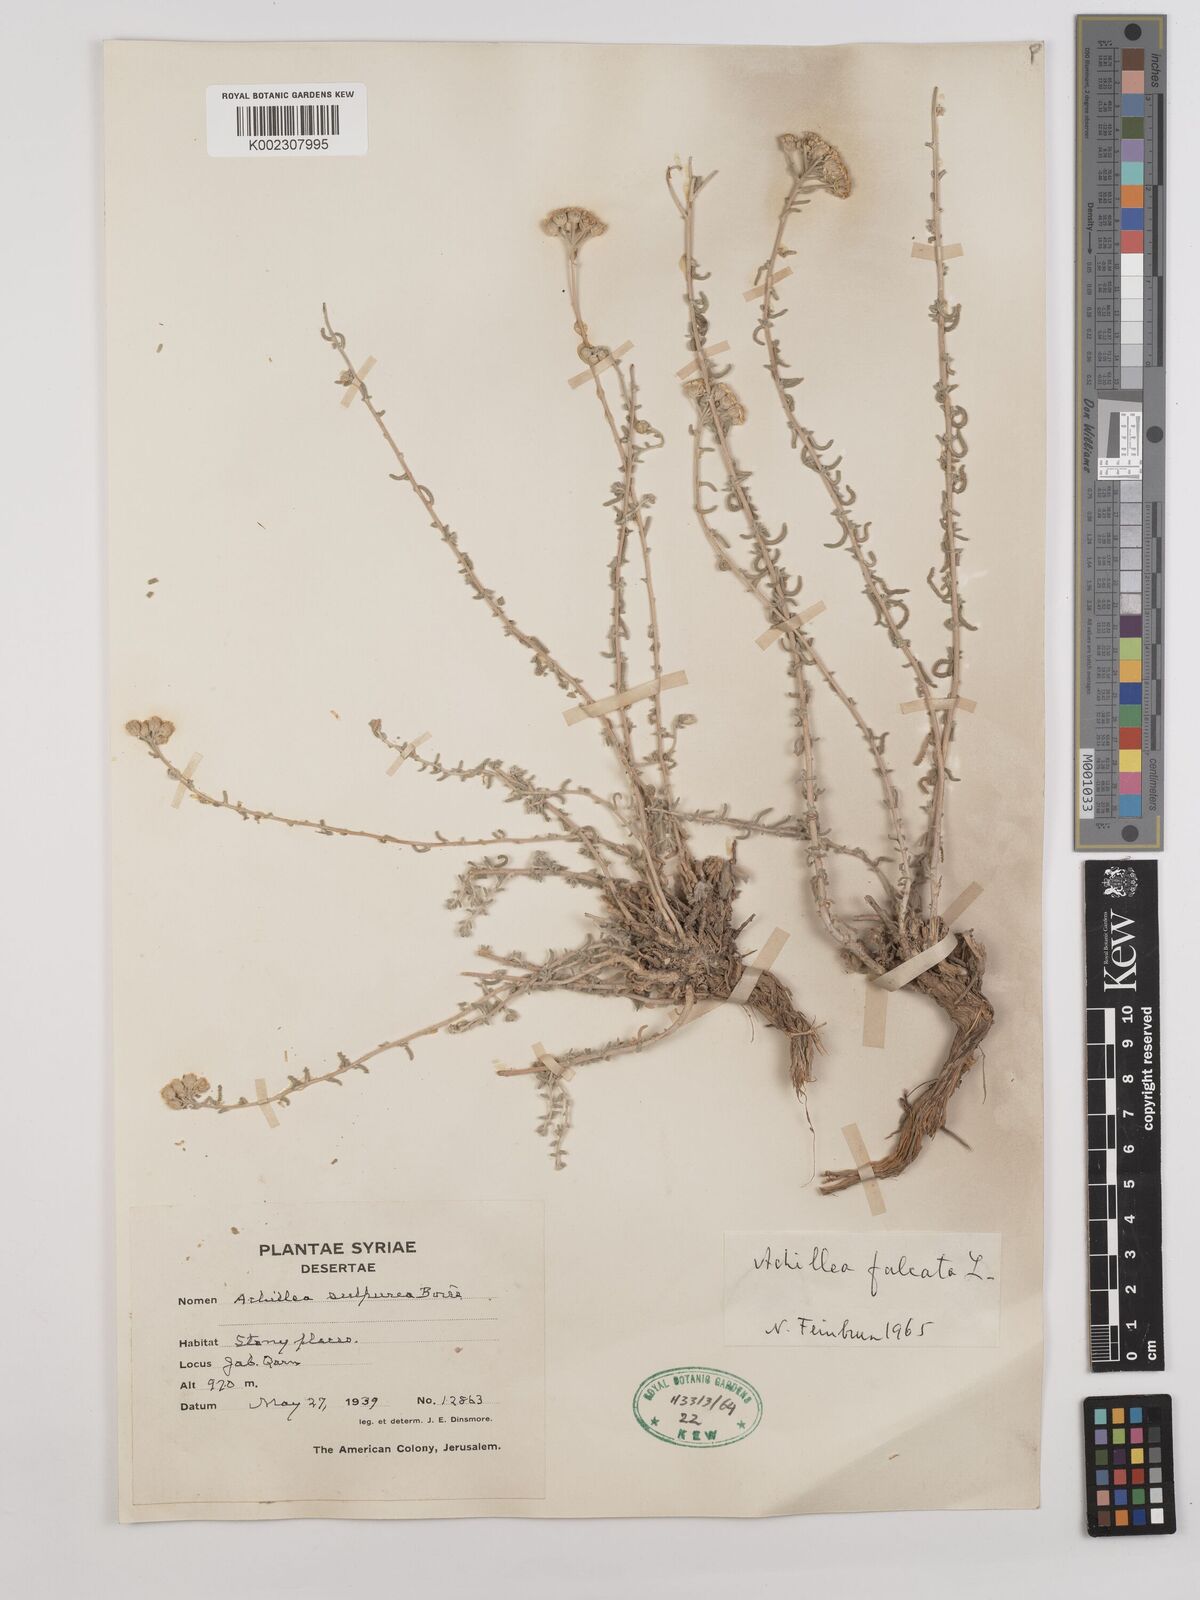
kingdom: Plantae
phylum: Tracheophyta
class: Magnoliopsida
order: Asterales
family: Asteraceae
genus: Achillea
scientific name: Achillea falcata
